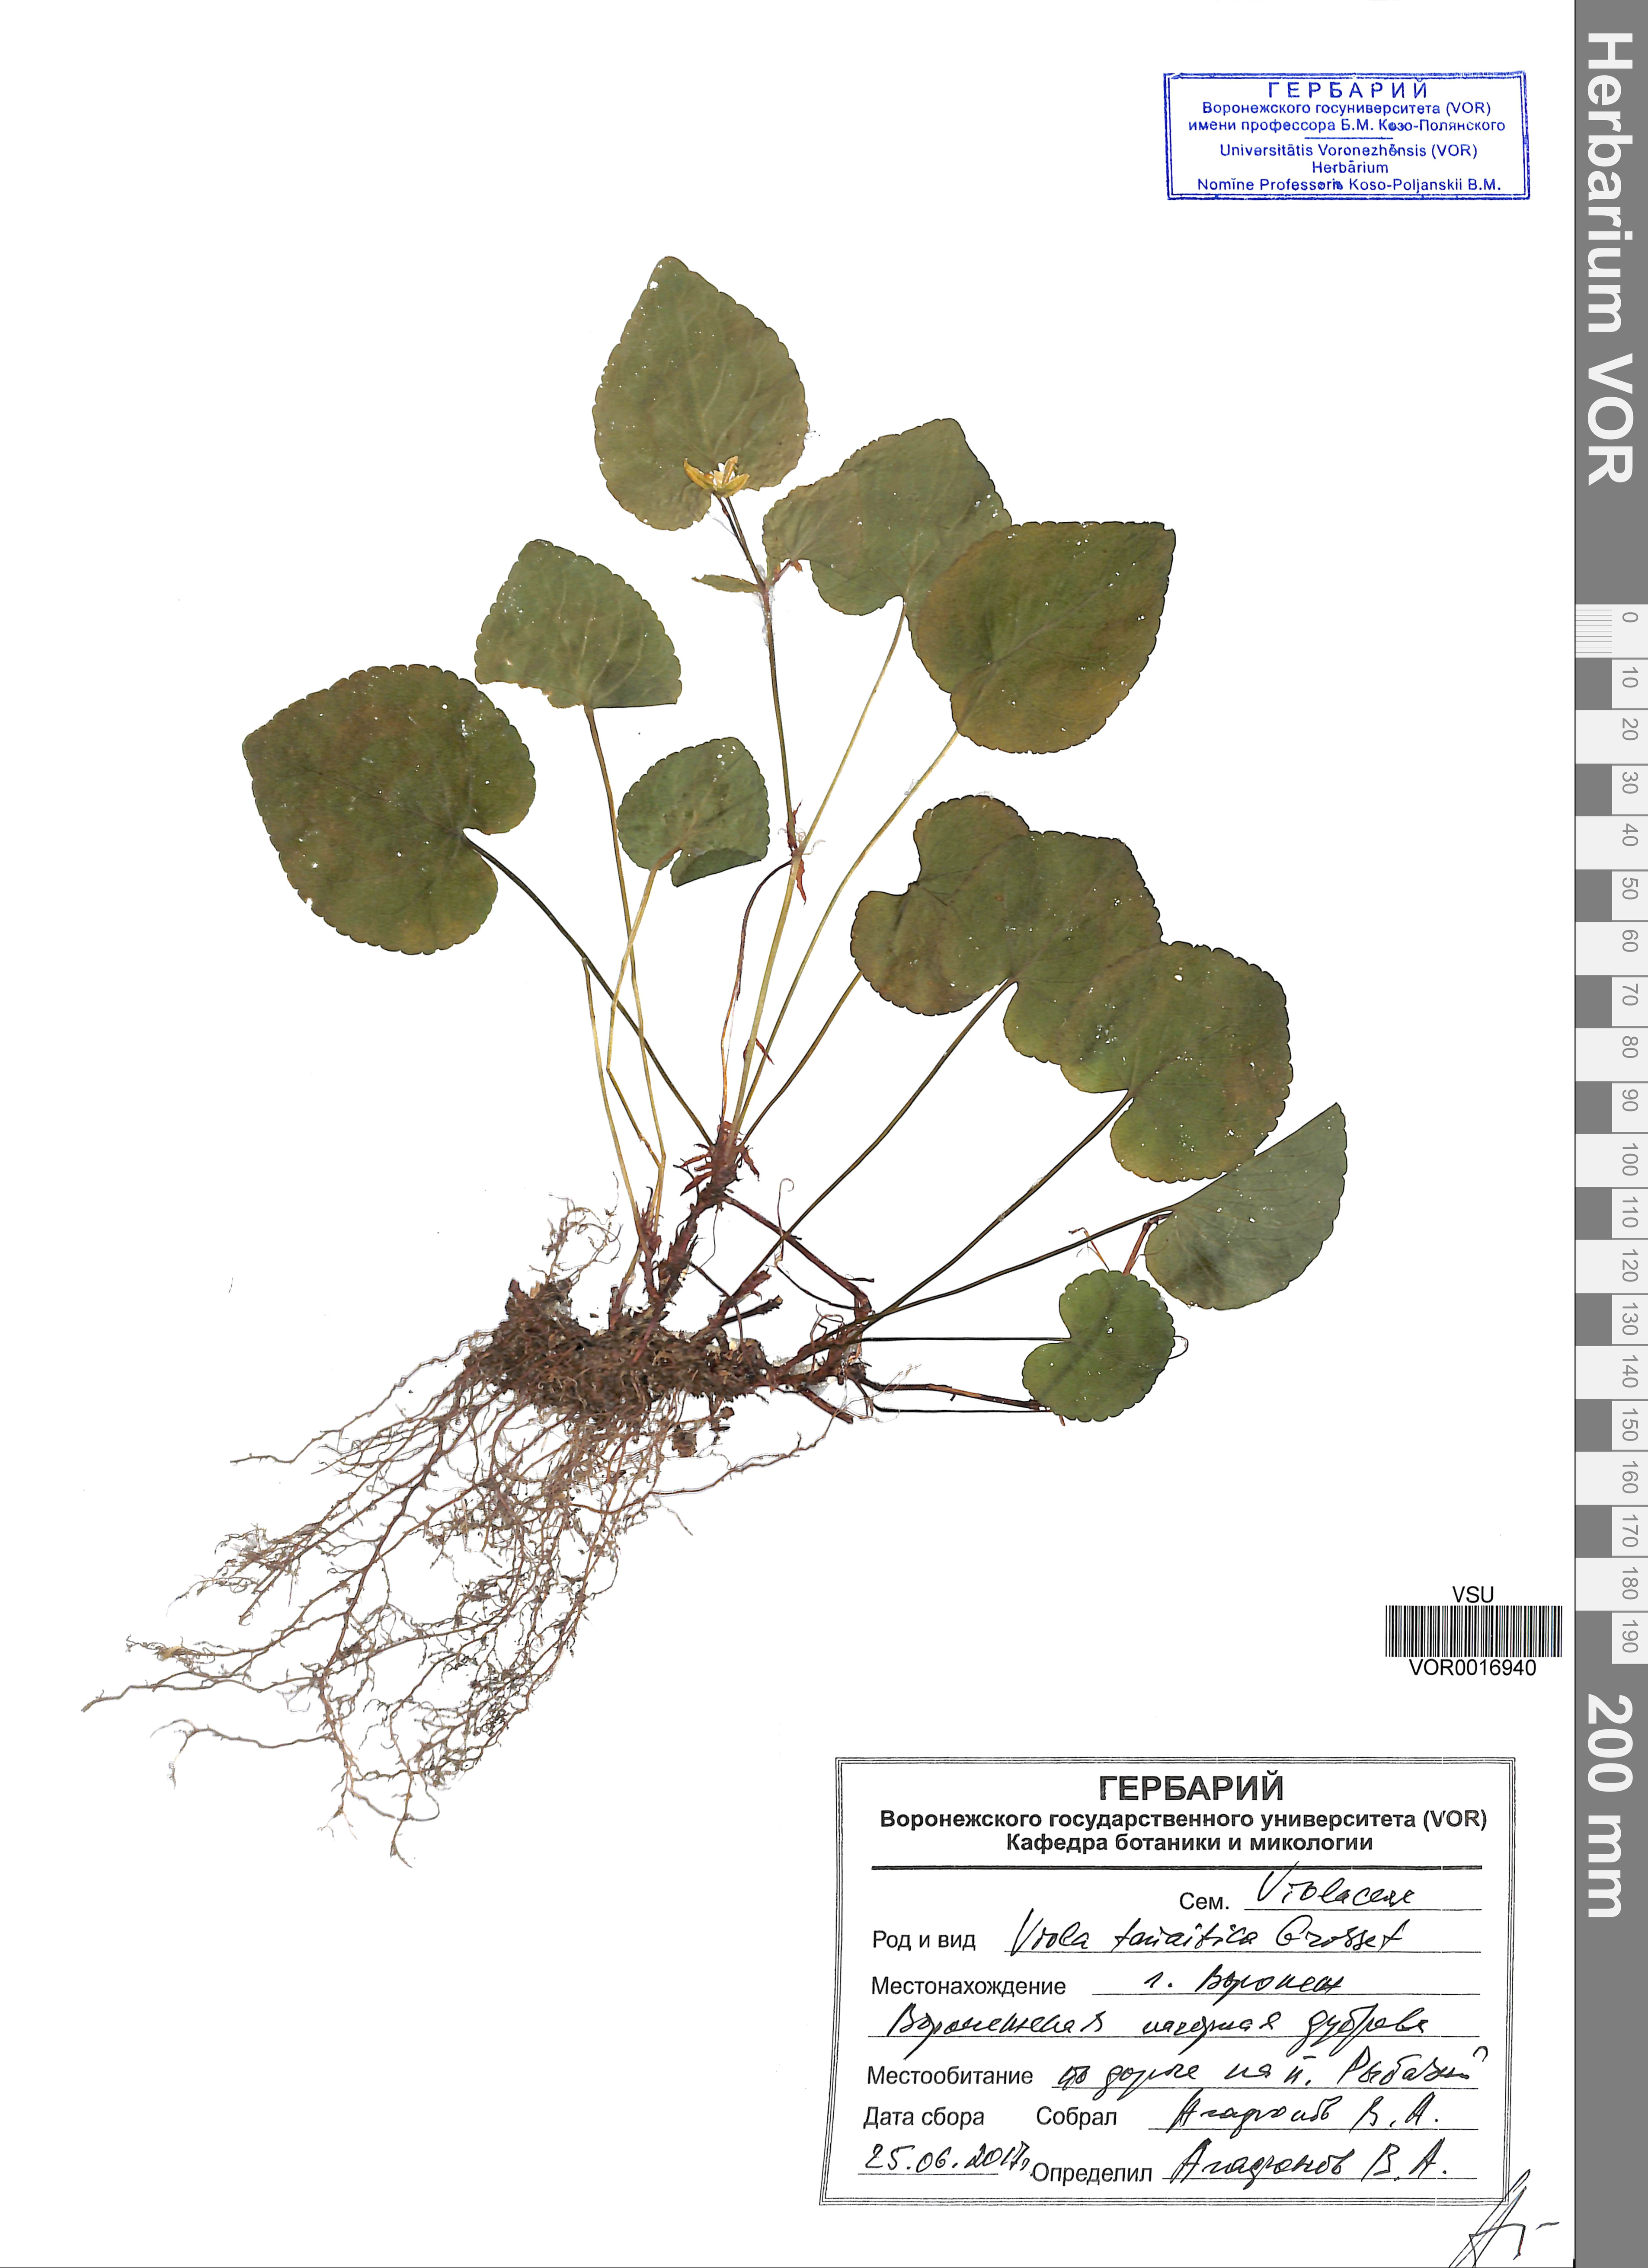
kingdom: Plantae
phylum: Tracheophyta
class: Magnoliopsida
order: Malpighiales
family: Violaceae
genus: Viola
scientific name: Viola tanaitica
